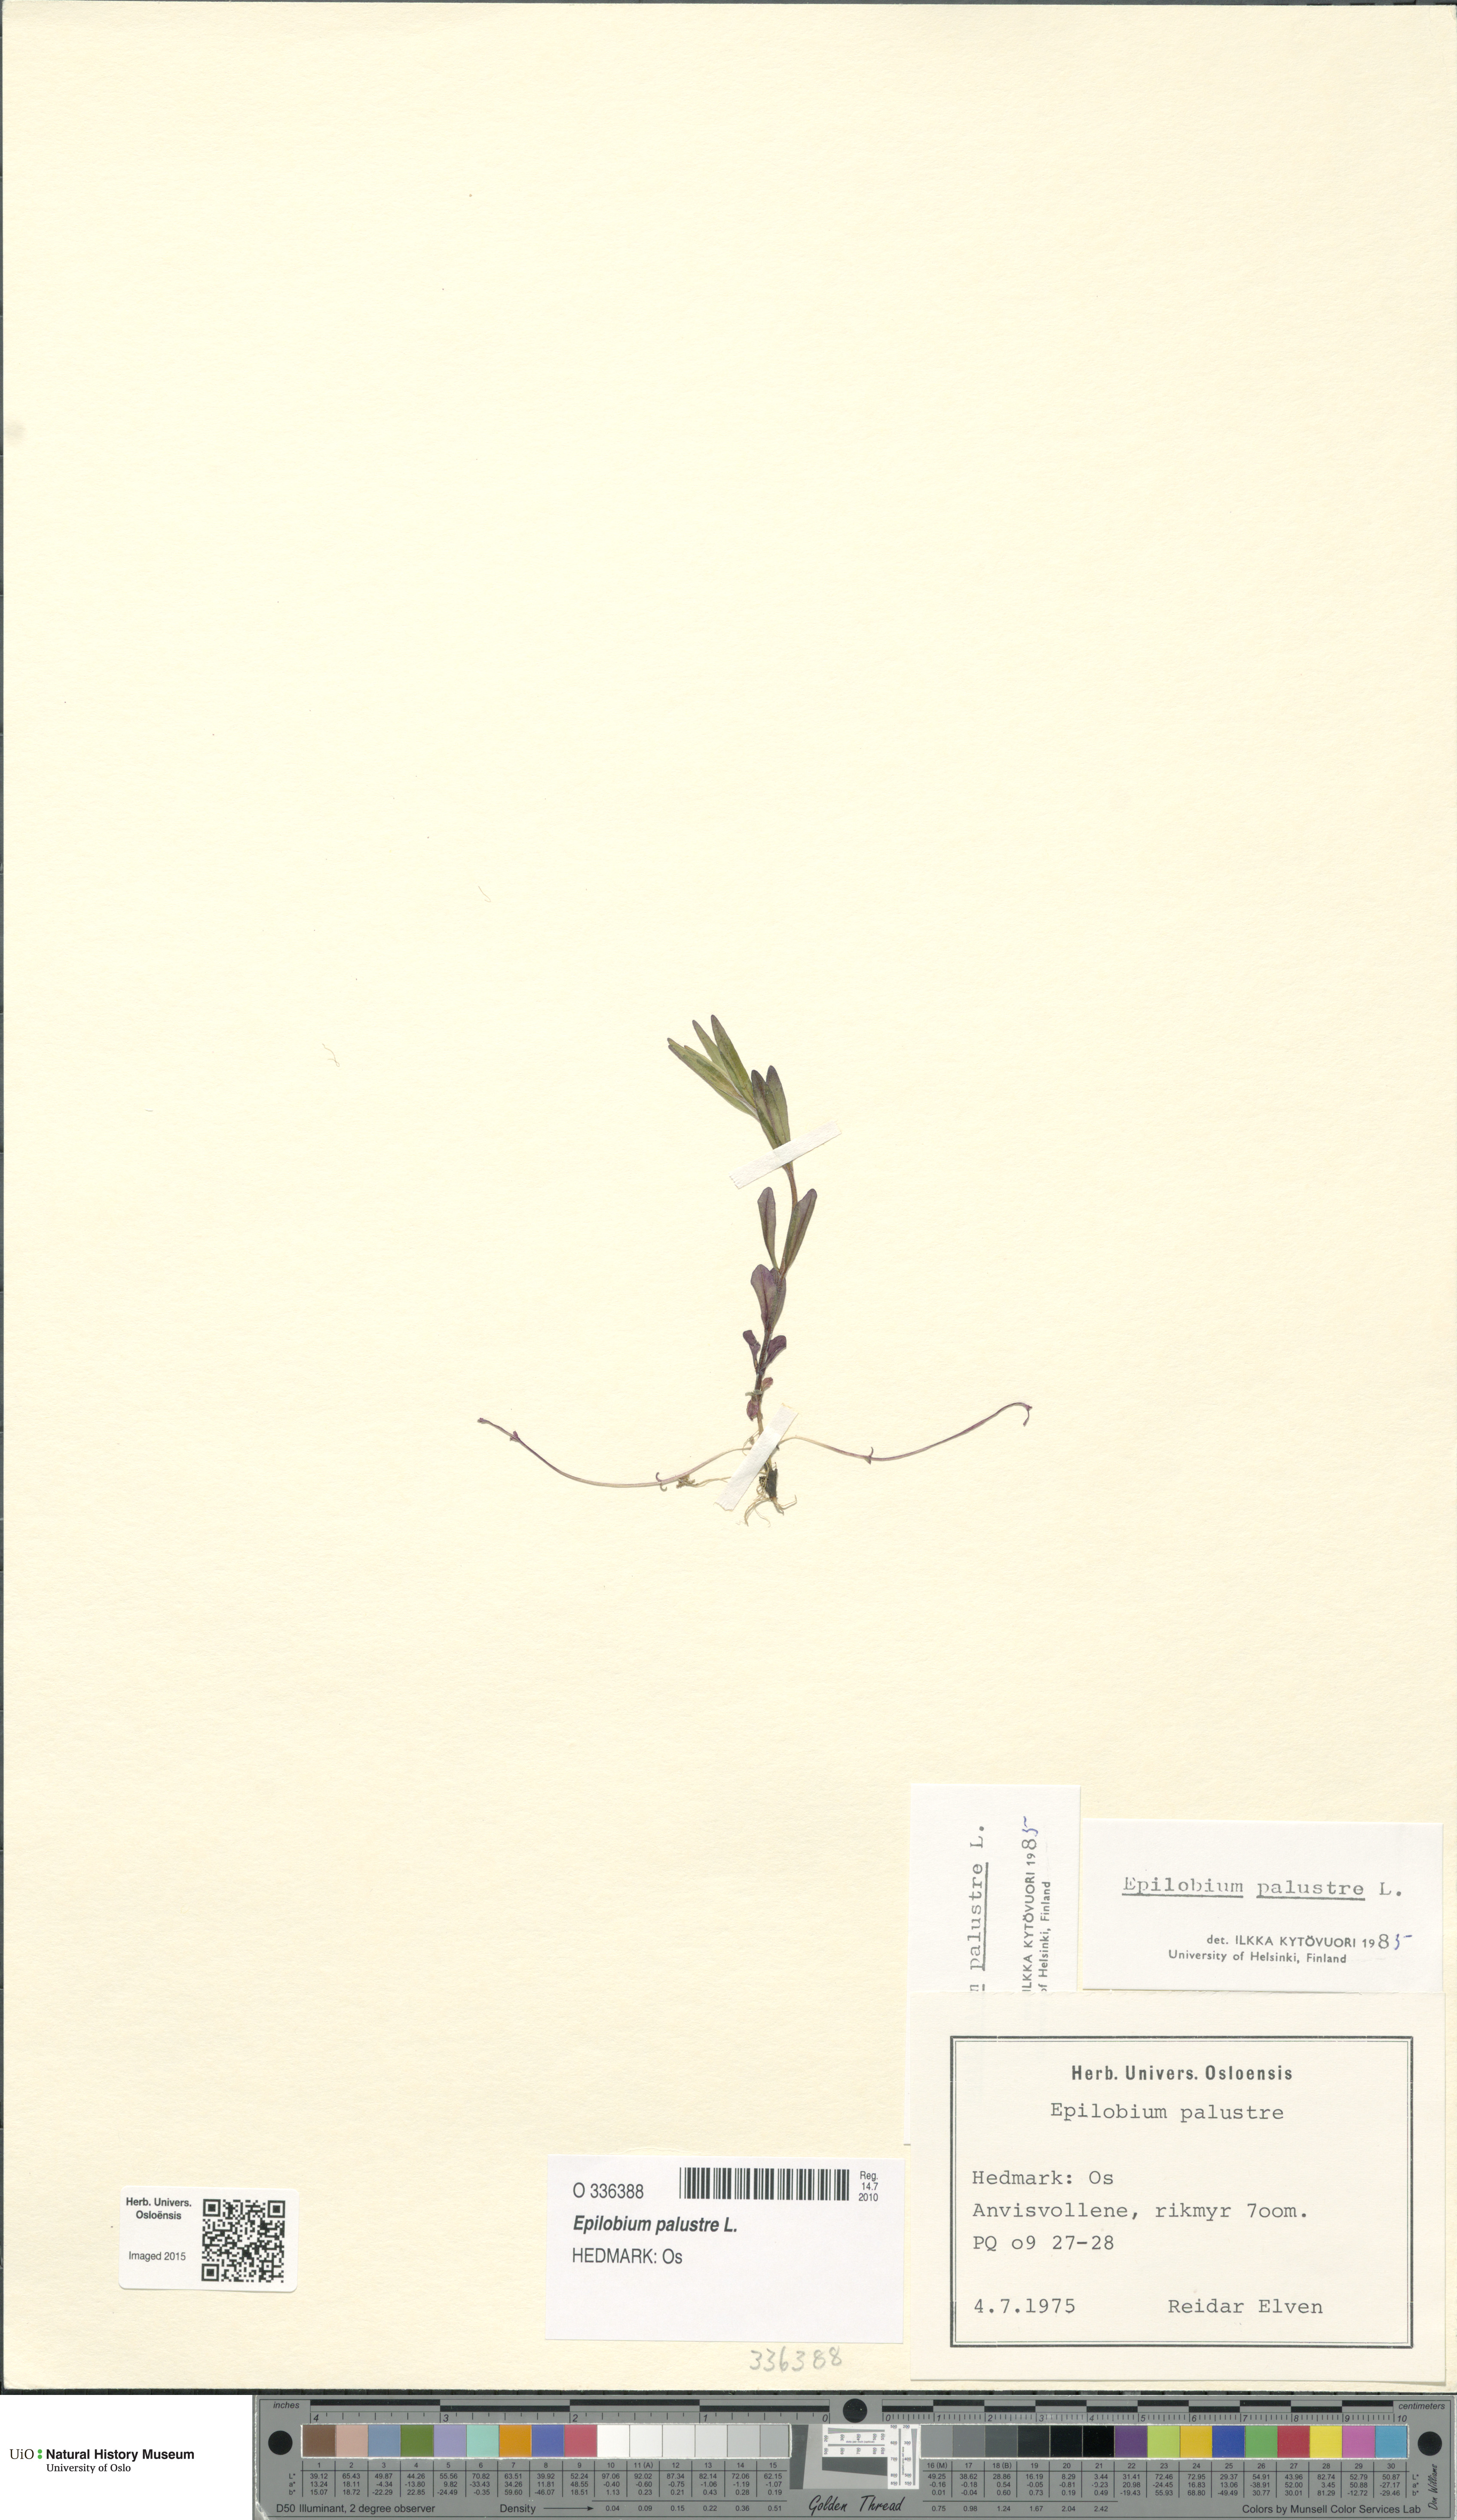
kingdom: Plantae
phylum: Tracheophyta
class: Magnoliopsida
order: Myrtales
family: Onagraceae
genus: Epilobium
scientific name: Epilobium palustre
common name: Marsh willowherb
